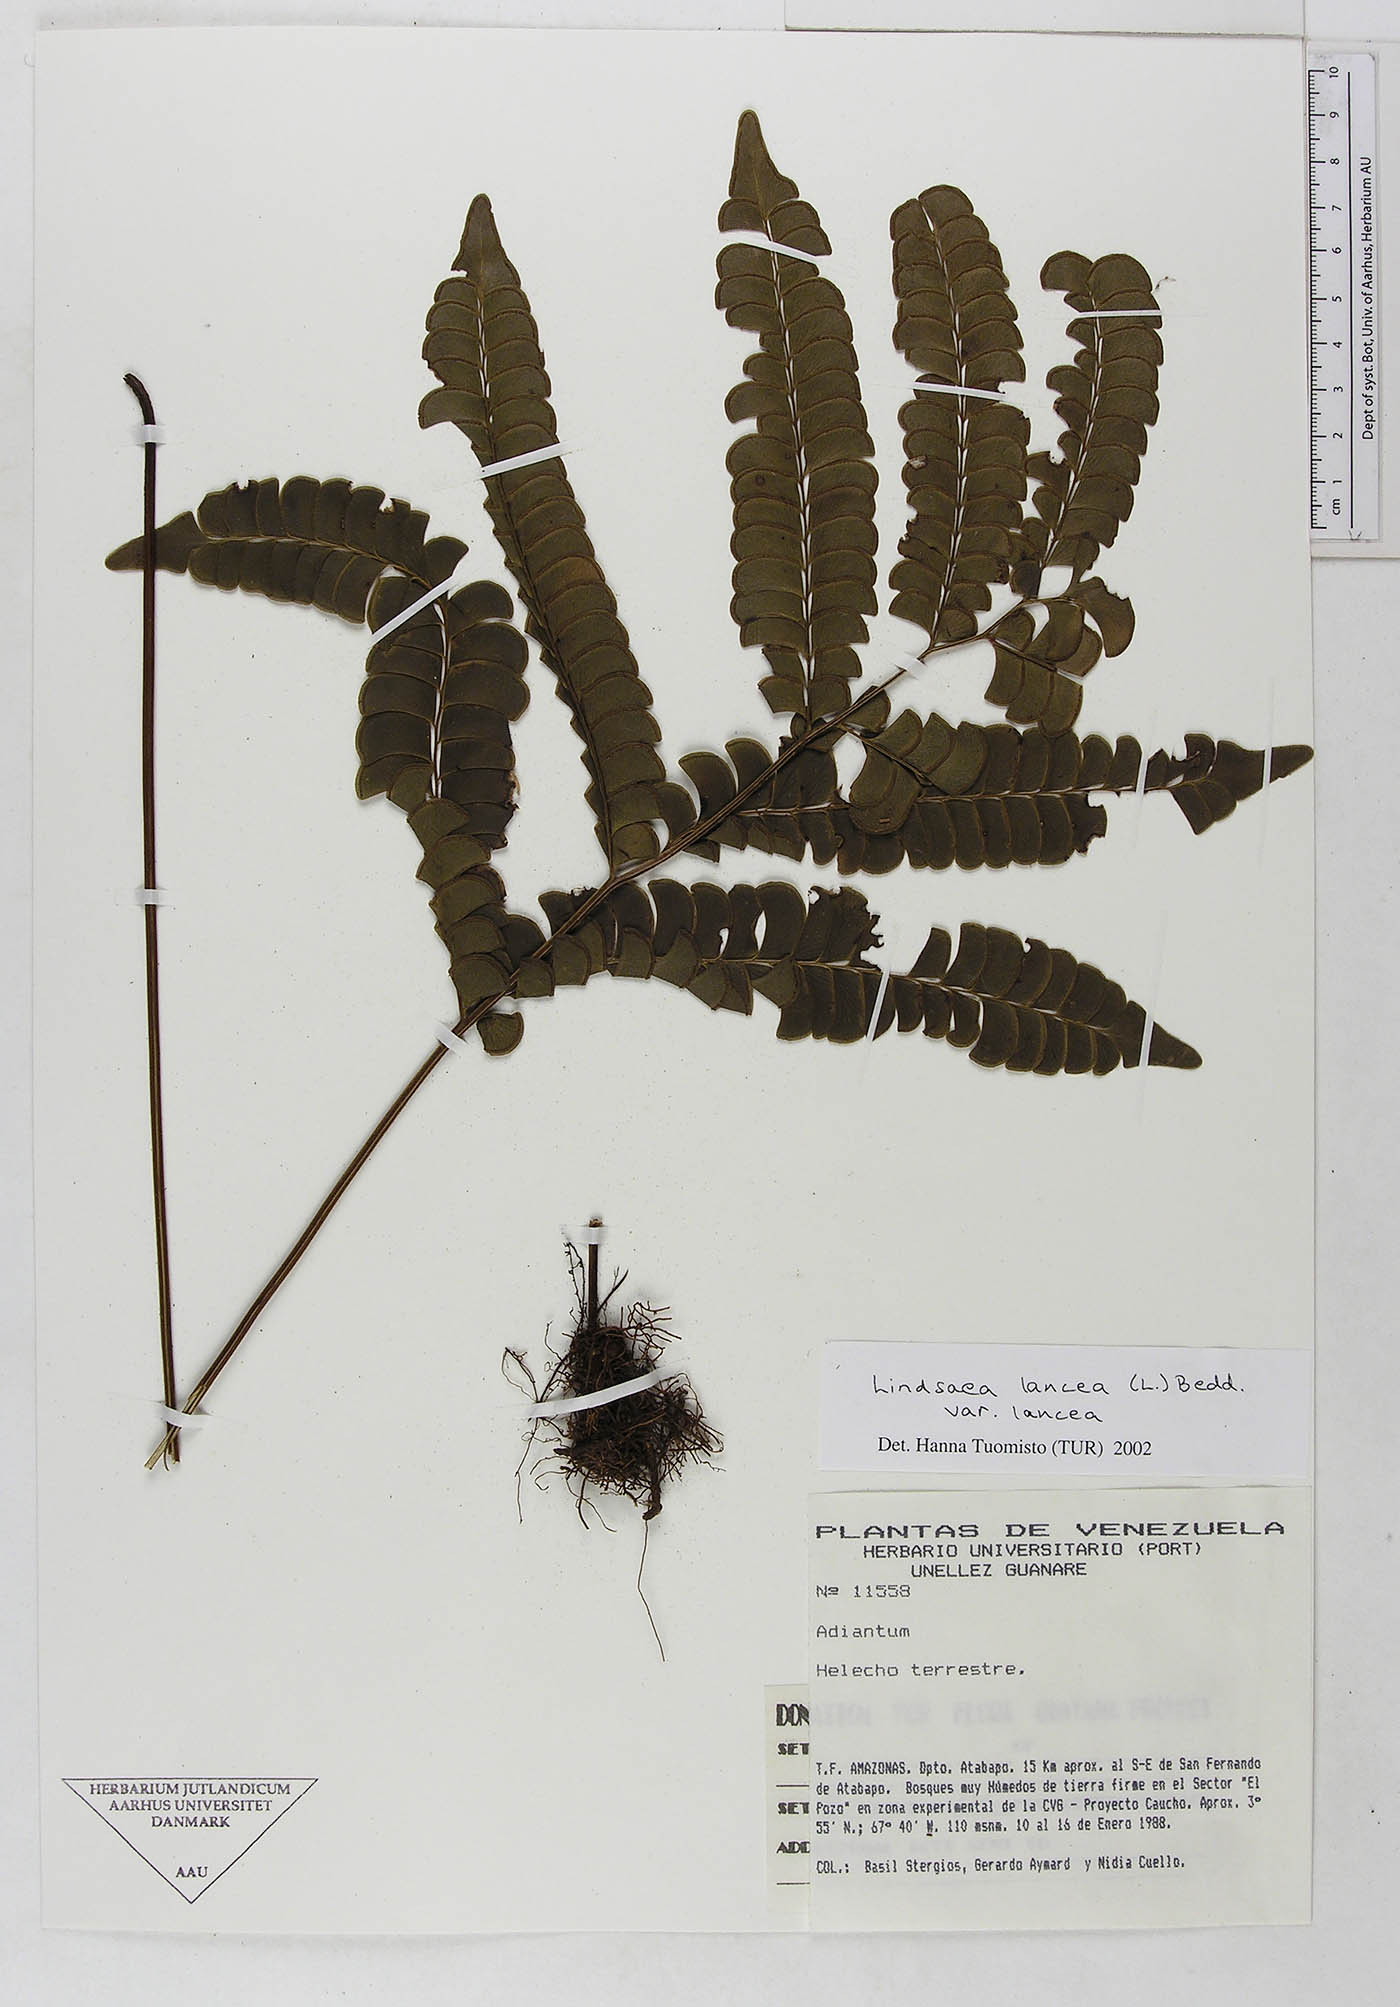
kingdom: Plantae
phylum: Tracheophyta
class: Polypodiopsida
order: Polypodiales
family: Dennstaedtiaceae
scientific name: Dennstaedtiaceae
